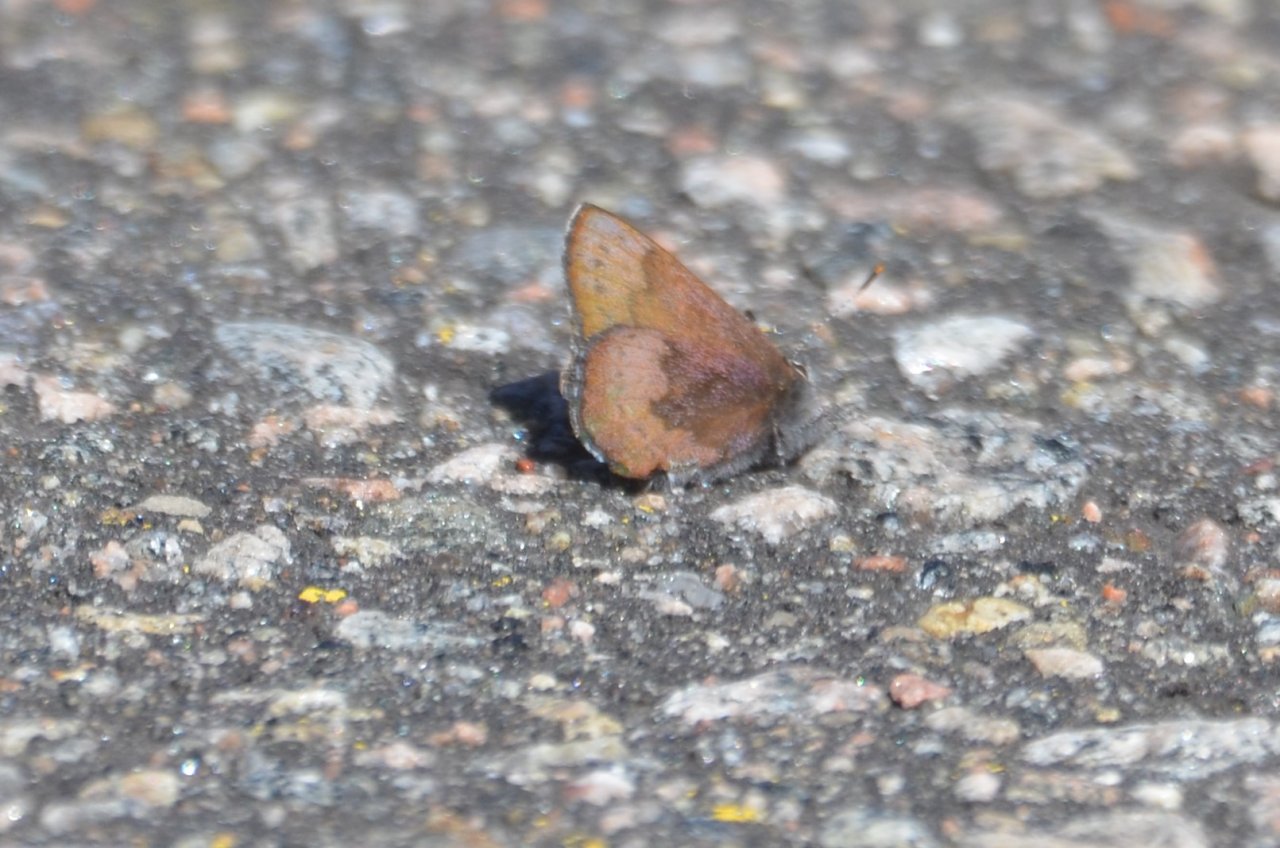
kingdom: Animalia
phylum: Arthropoda
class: Insecta
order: Lepidoptera
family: Lycaenidae
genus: Incisalia
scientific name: Incisalia irioides
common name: Brown Elfin
